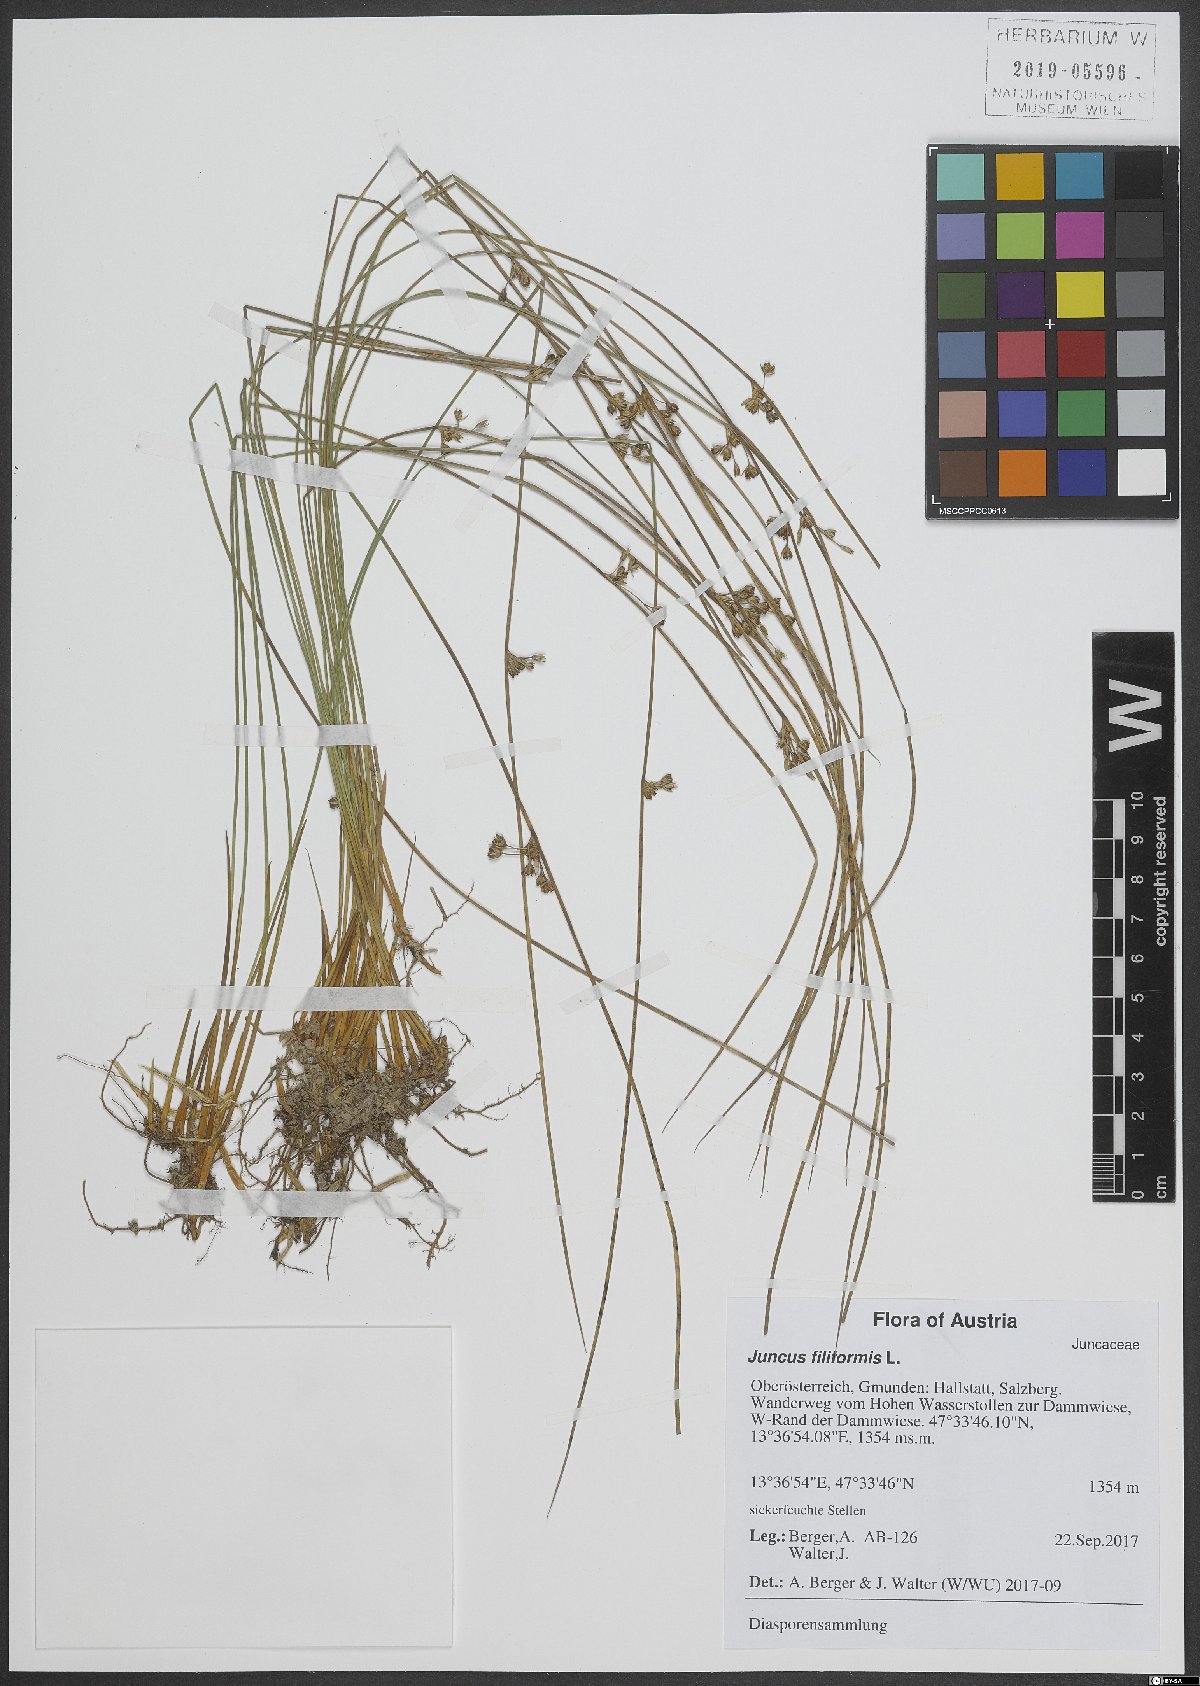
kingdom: Plantae
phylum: Tracheophyta
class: Liliopsida
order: Poales
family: Juncaceae
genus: Juncus
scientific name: Juncus filiformis
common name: Thread rush
